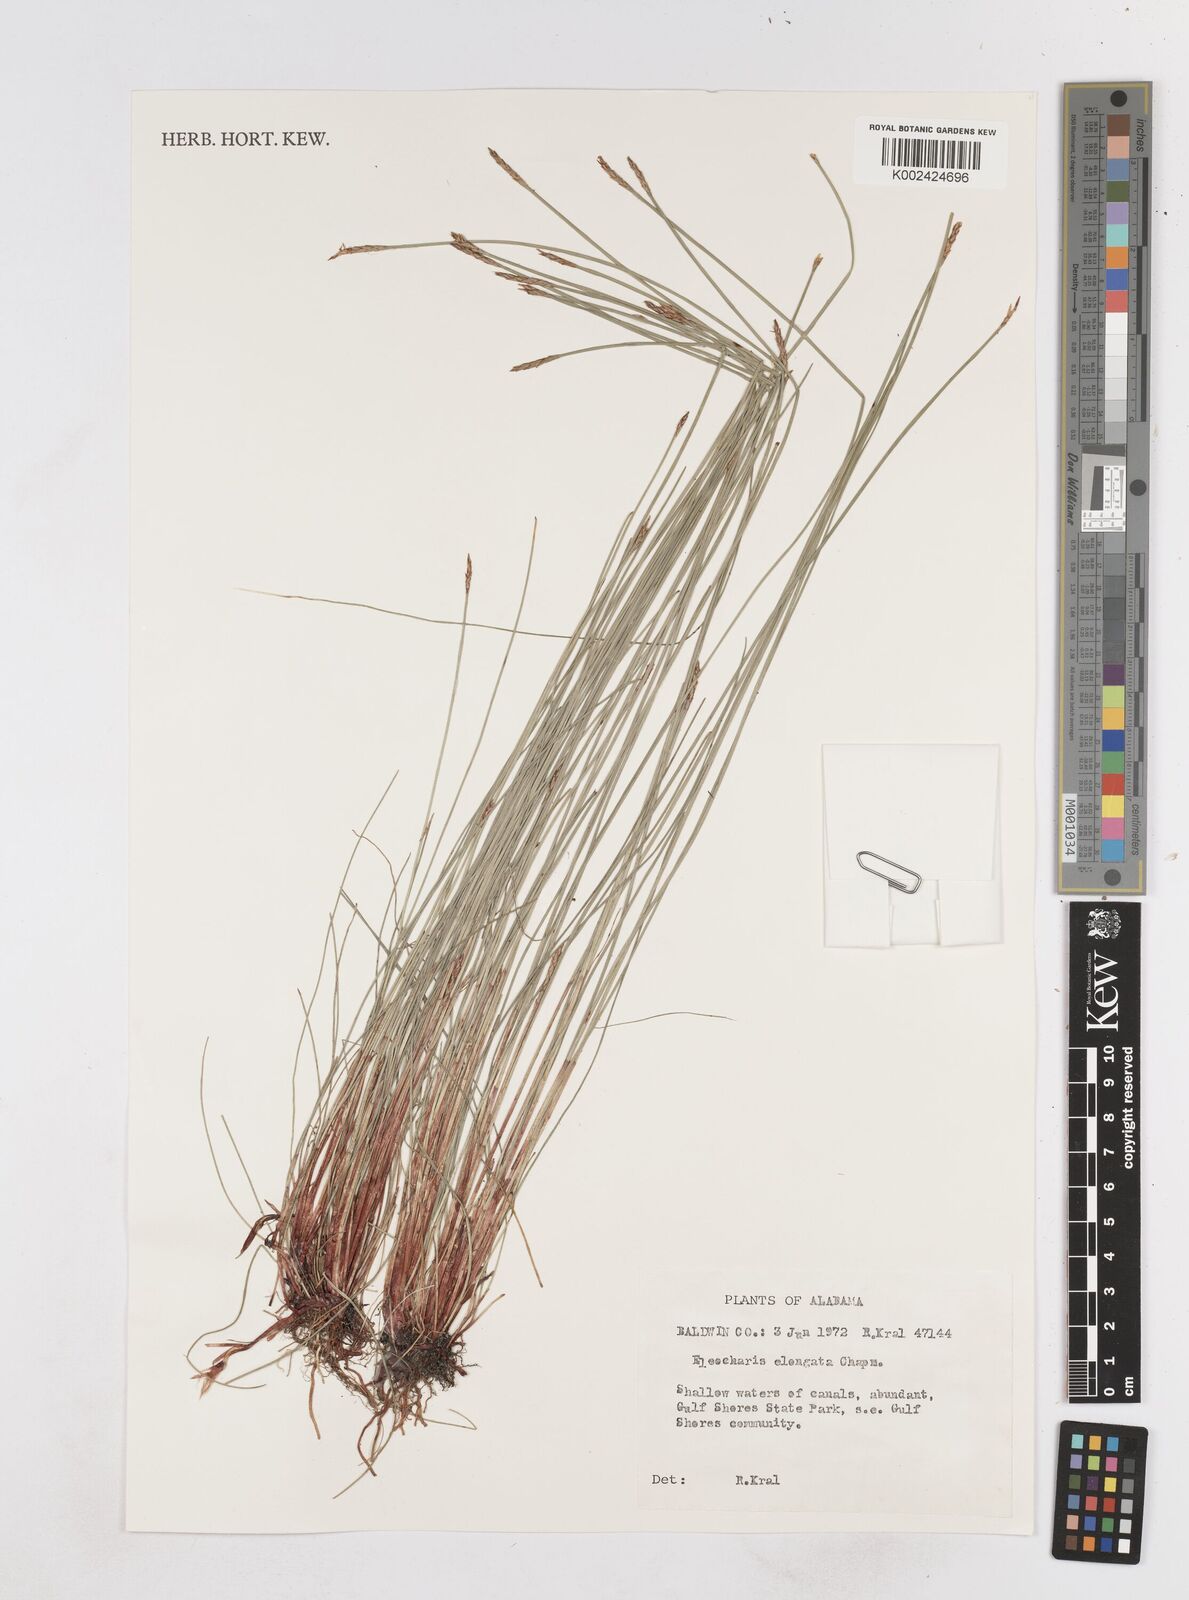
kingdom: Plantae
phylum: Tracheophyta
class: Liliopsida
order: Poales
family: Cyperaceae
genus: Eleocharis
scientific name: Eleocharis elongata
